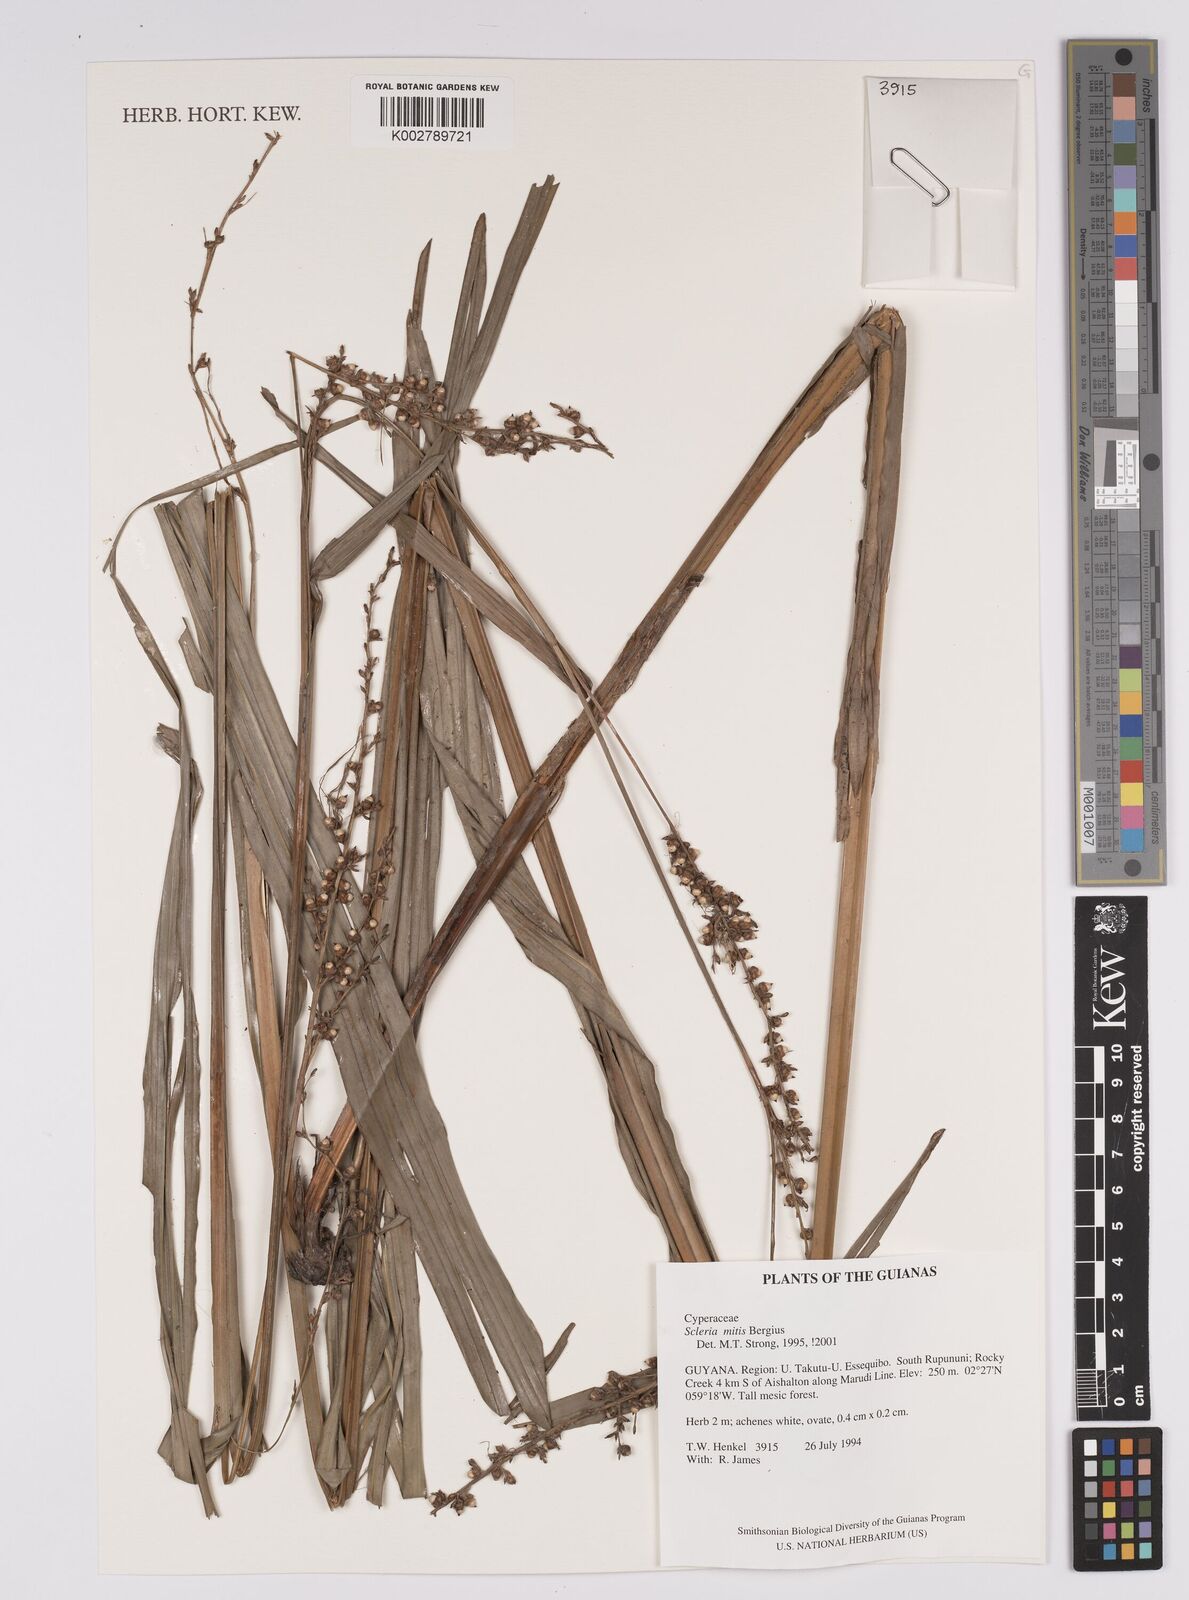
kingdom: Plantae
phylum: Tracheophyta
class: Liliopsida
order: Poales
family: Cyperaceae
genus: Scleria
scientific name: Scleria mitis
